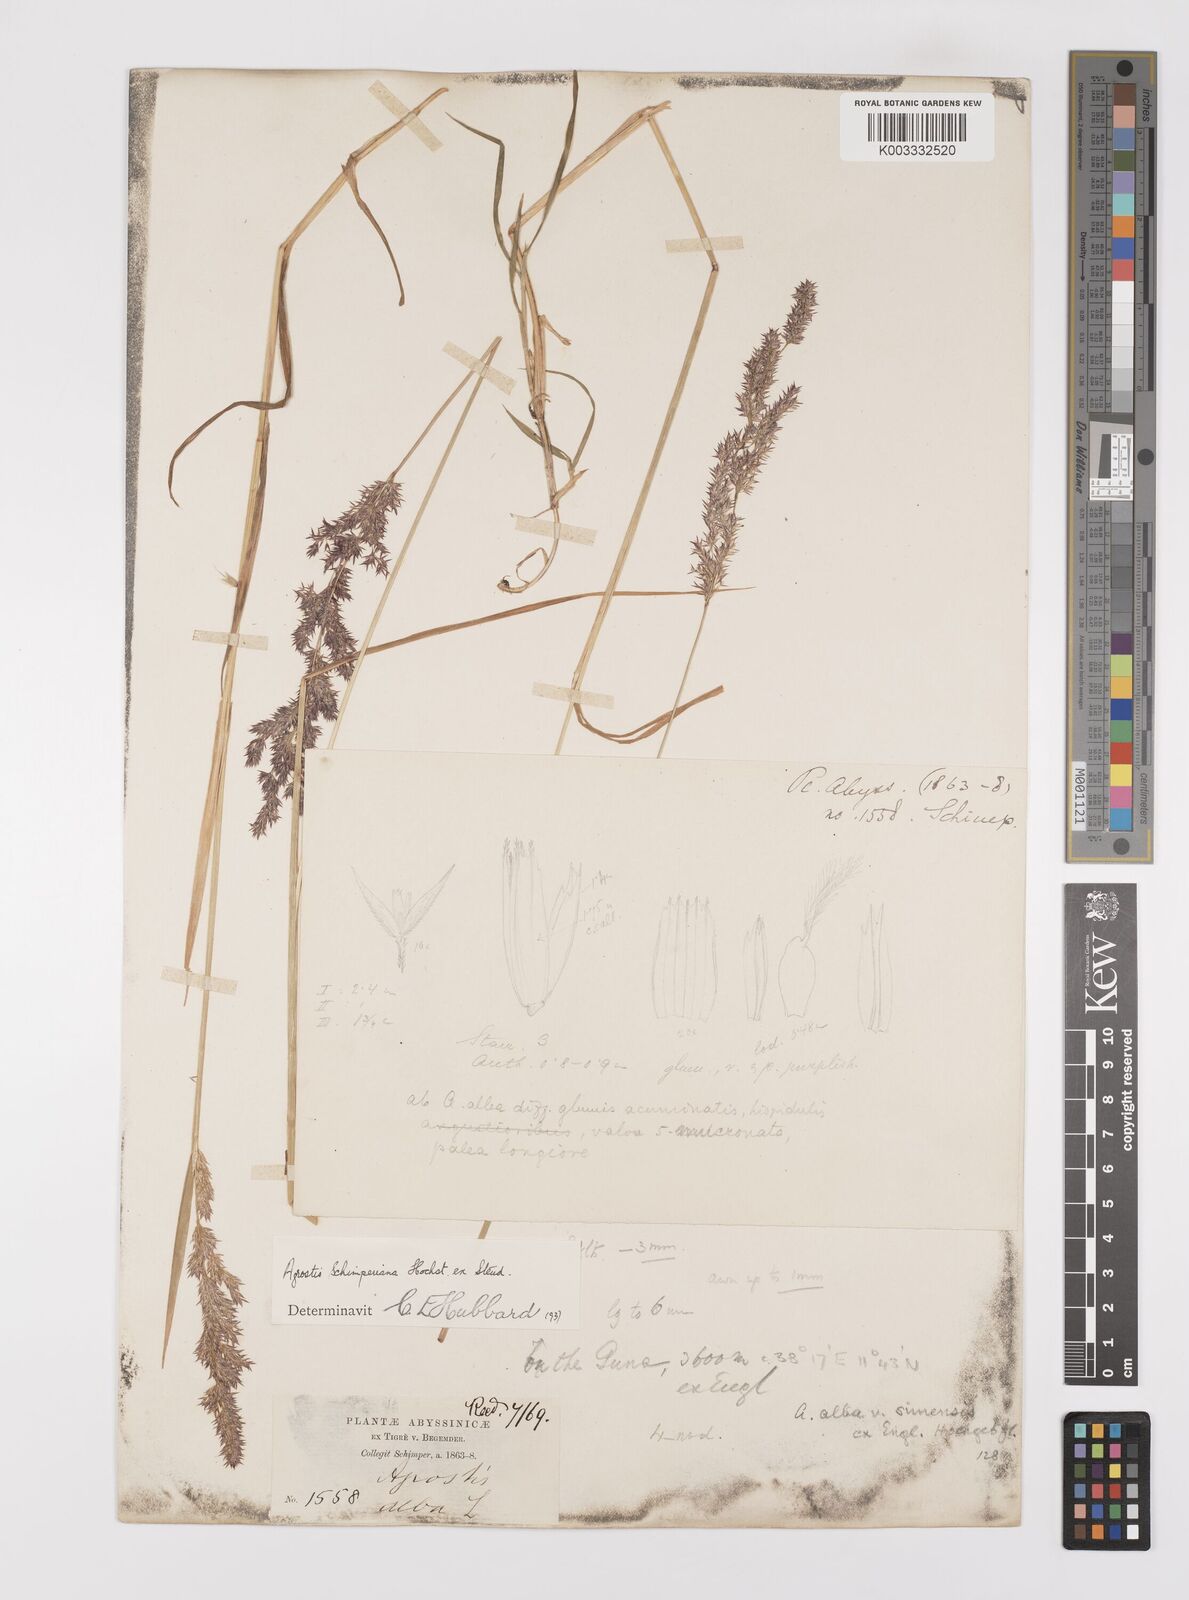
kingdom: Plantae
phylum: Tracheophyta
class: Liliopsida
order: Poales
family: Poaceae
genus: Polypogon
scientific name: Polypogon schimperianus
